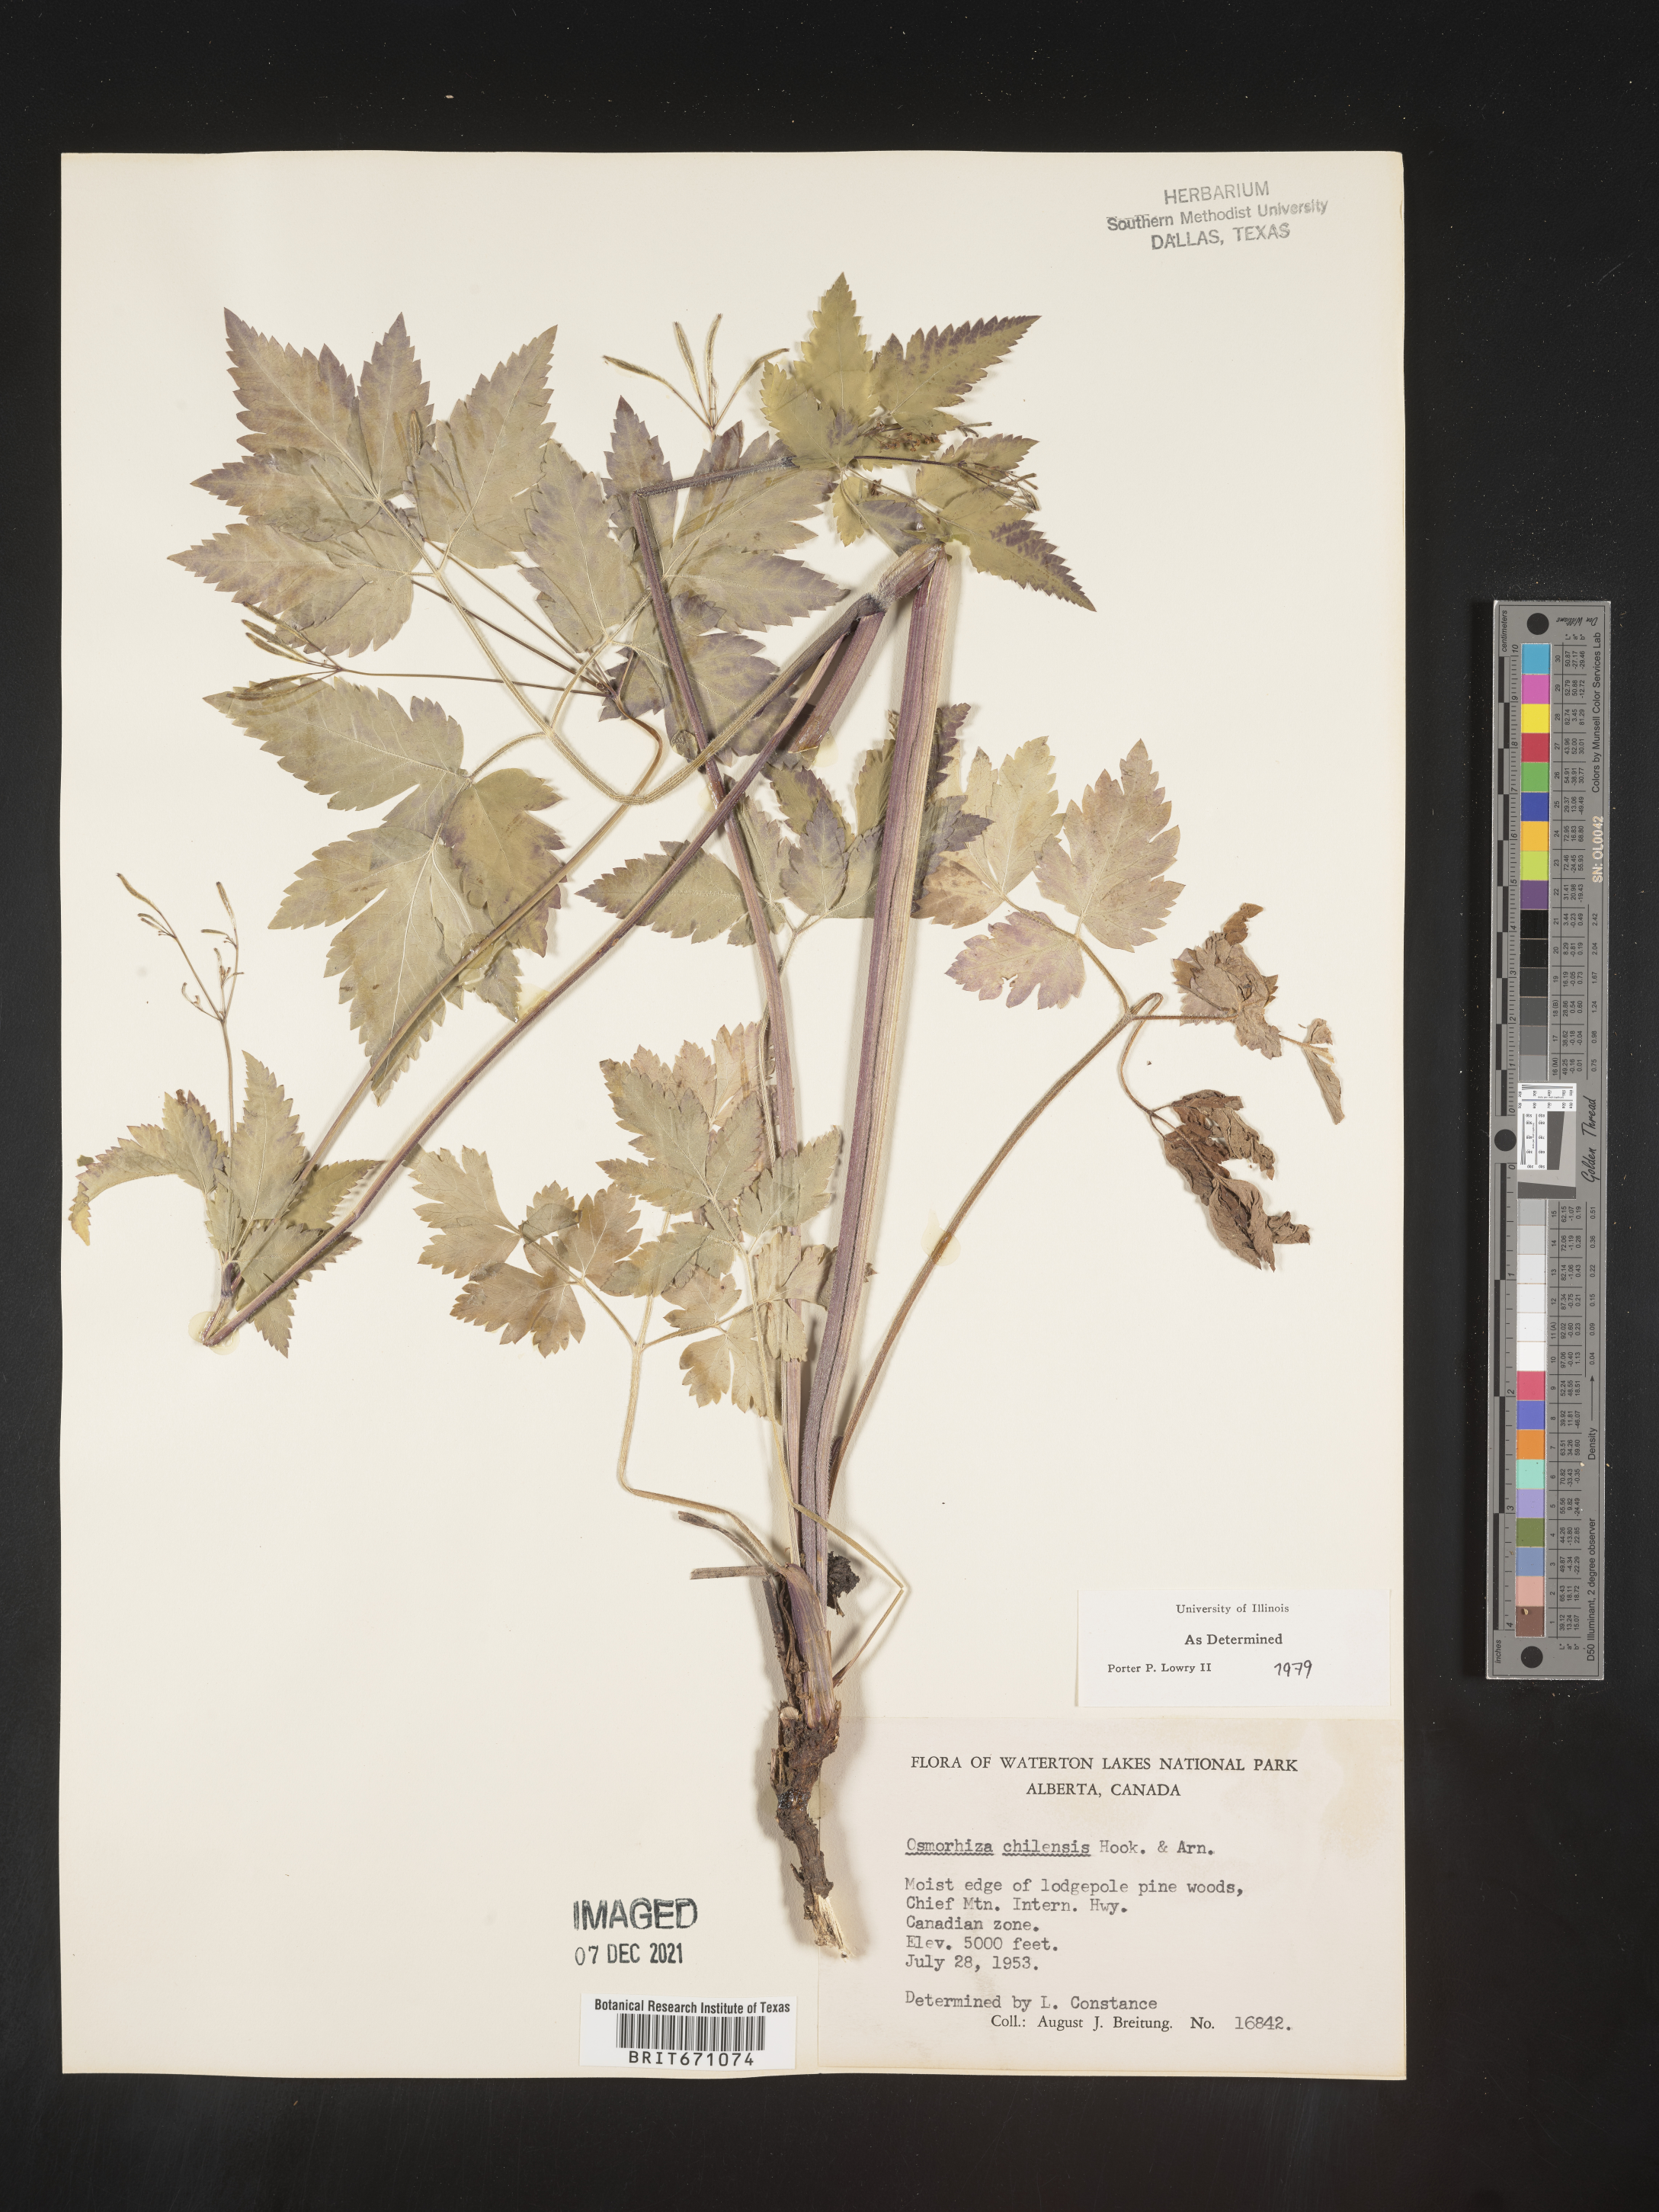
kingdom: Plantae
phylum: Tracheophyta
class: Magnoliopsida
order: Apiales
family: Apiaceae
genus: Osmorhiza
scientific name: Osmorhiza berteroi
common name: Mountain sweet cicely
